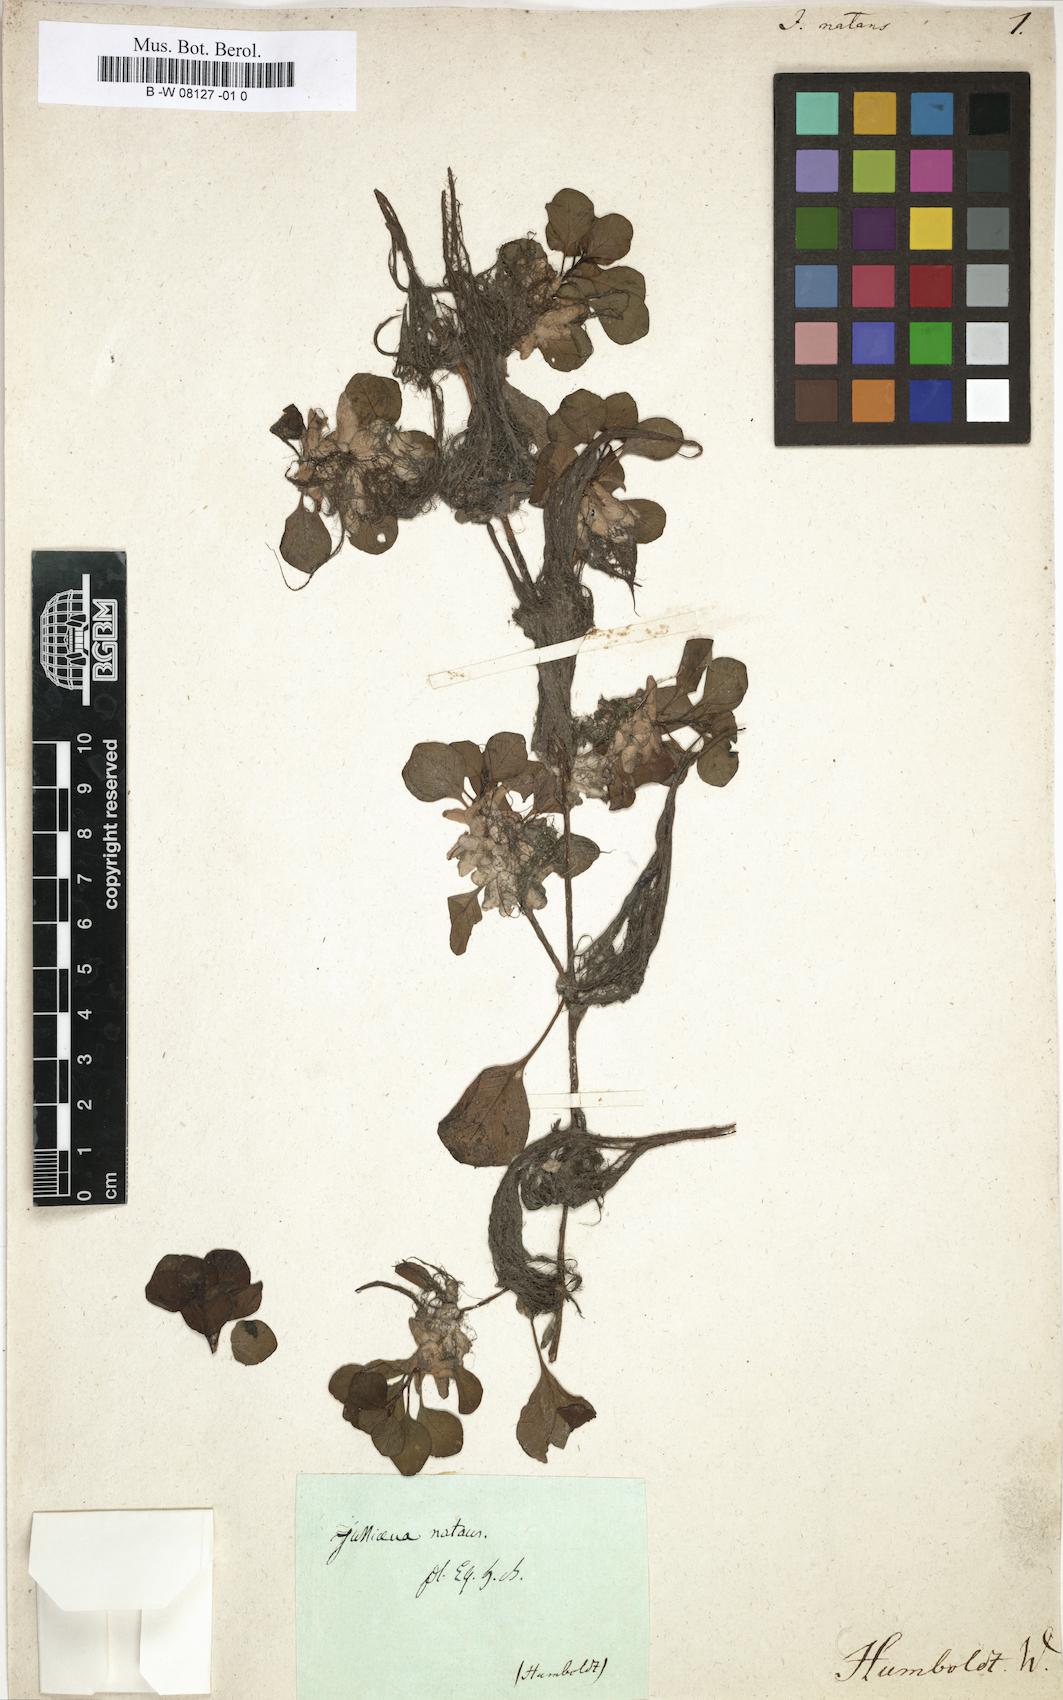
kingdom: Plantae
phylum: Tracheophyta
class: Magnoliopsida
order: Myrtales
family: Onagraceae
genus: Ludwigia
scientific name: Ludwigia helminthorrhiza
